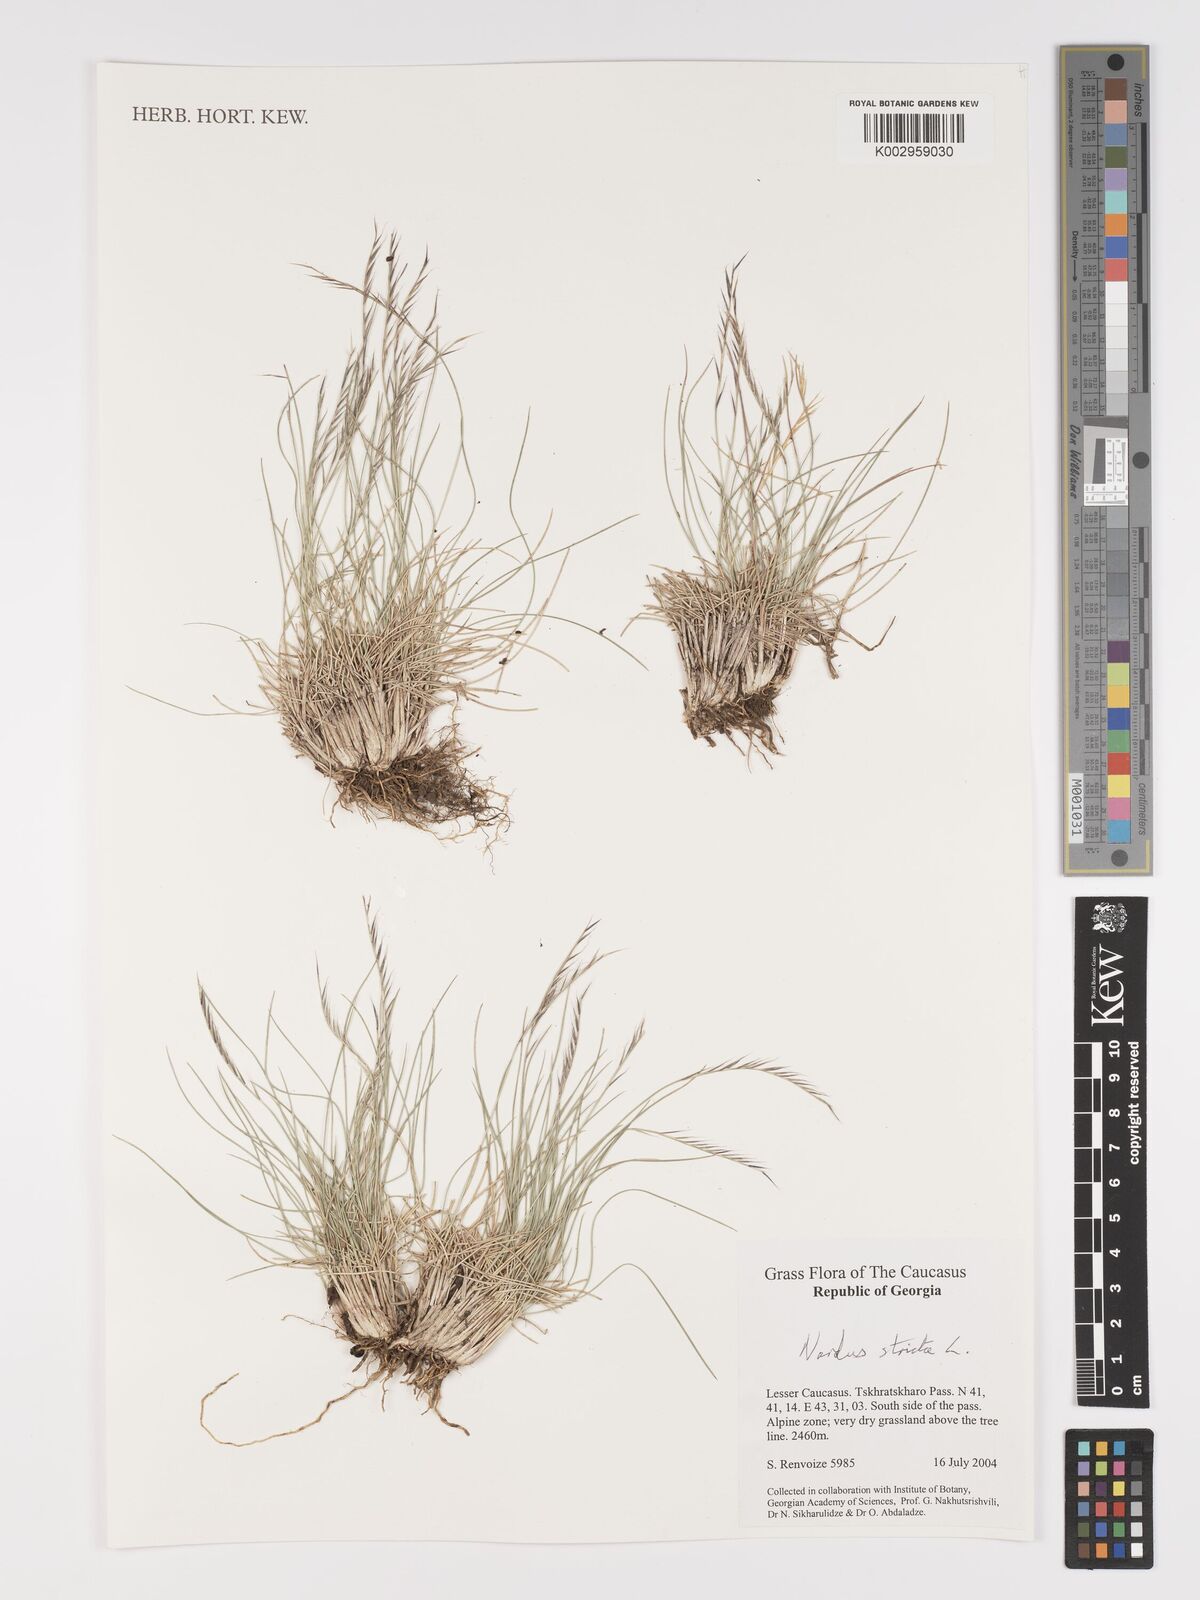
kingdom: Plantae
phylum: Tracheophyta
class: Liliopsida
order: Poales
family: Poaceae
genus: Nardus
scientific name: Nardus stricta
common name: Mat-grass
